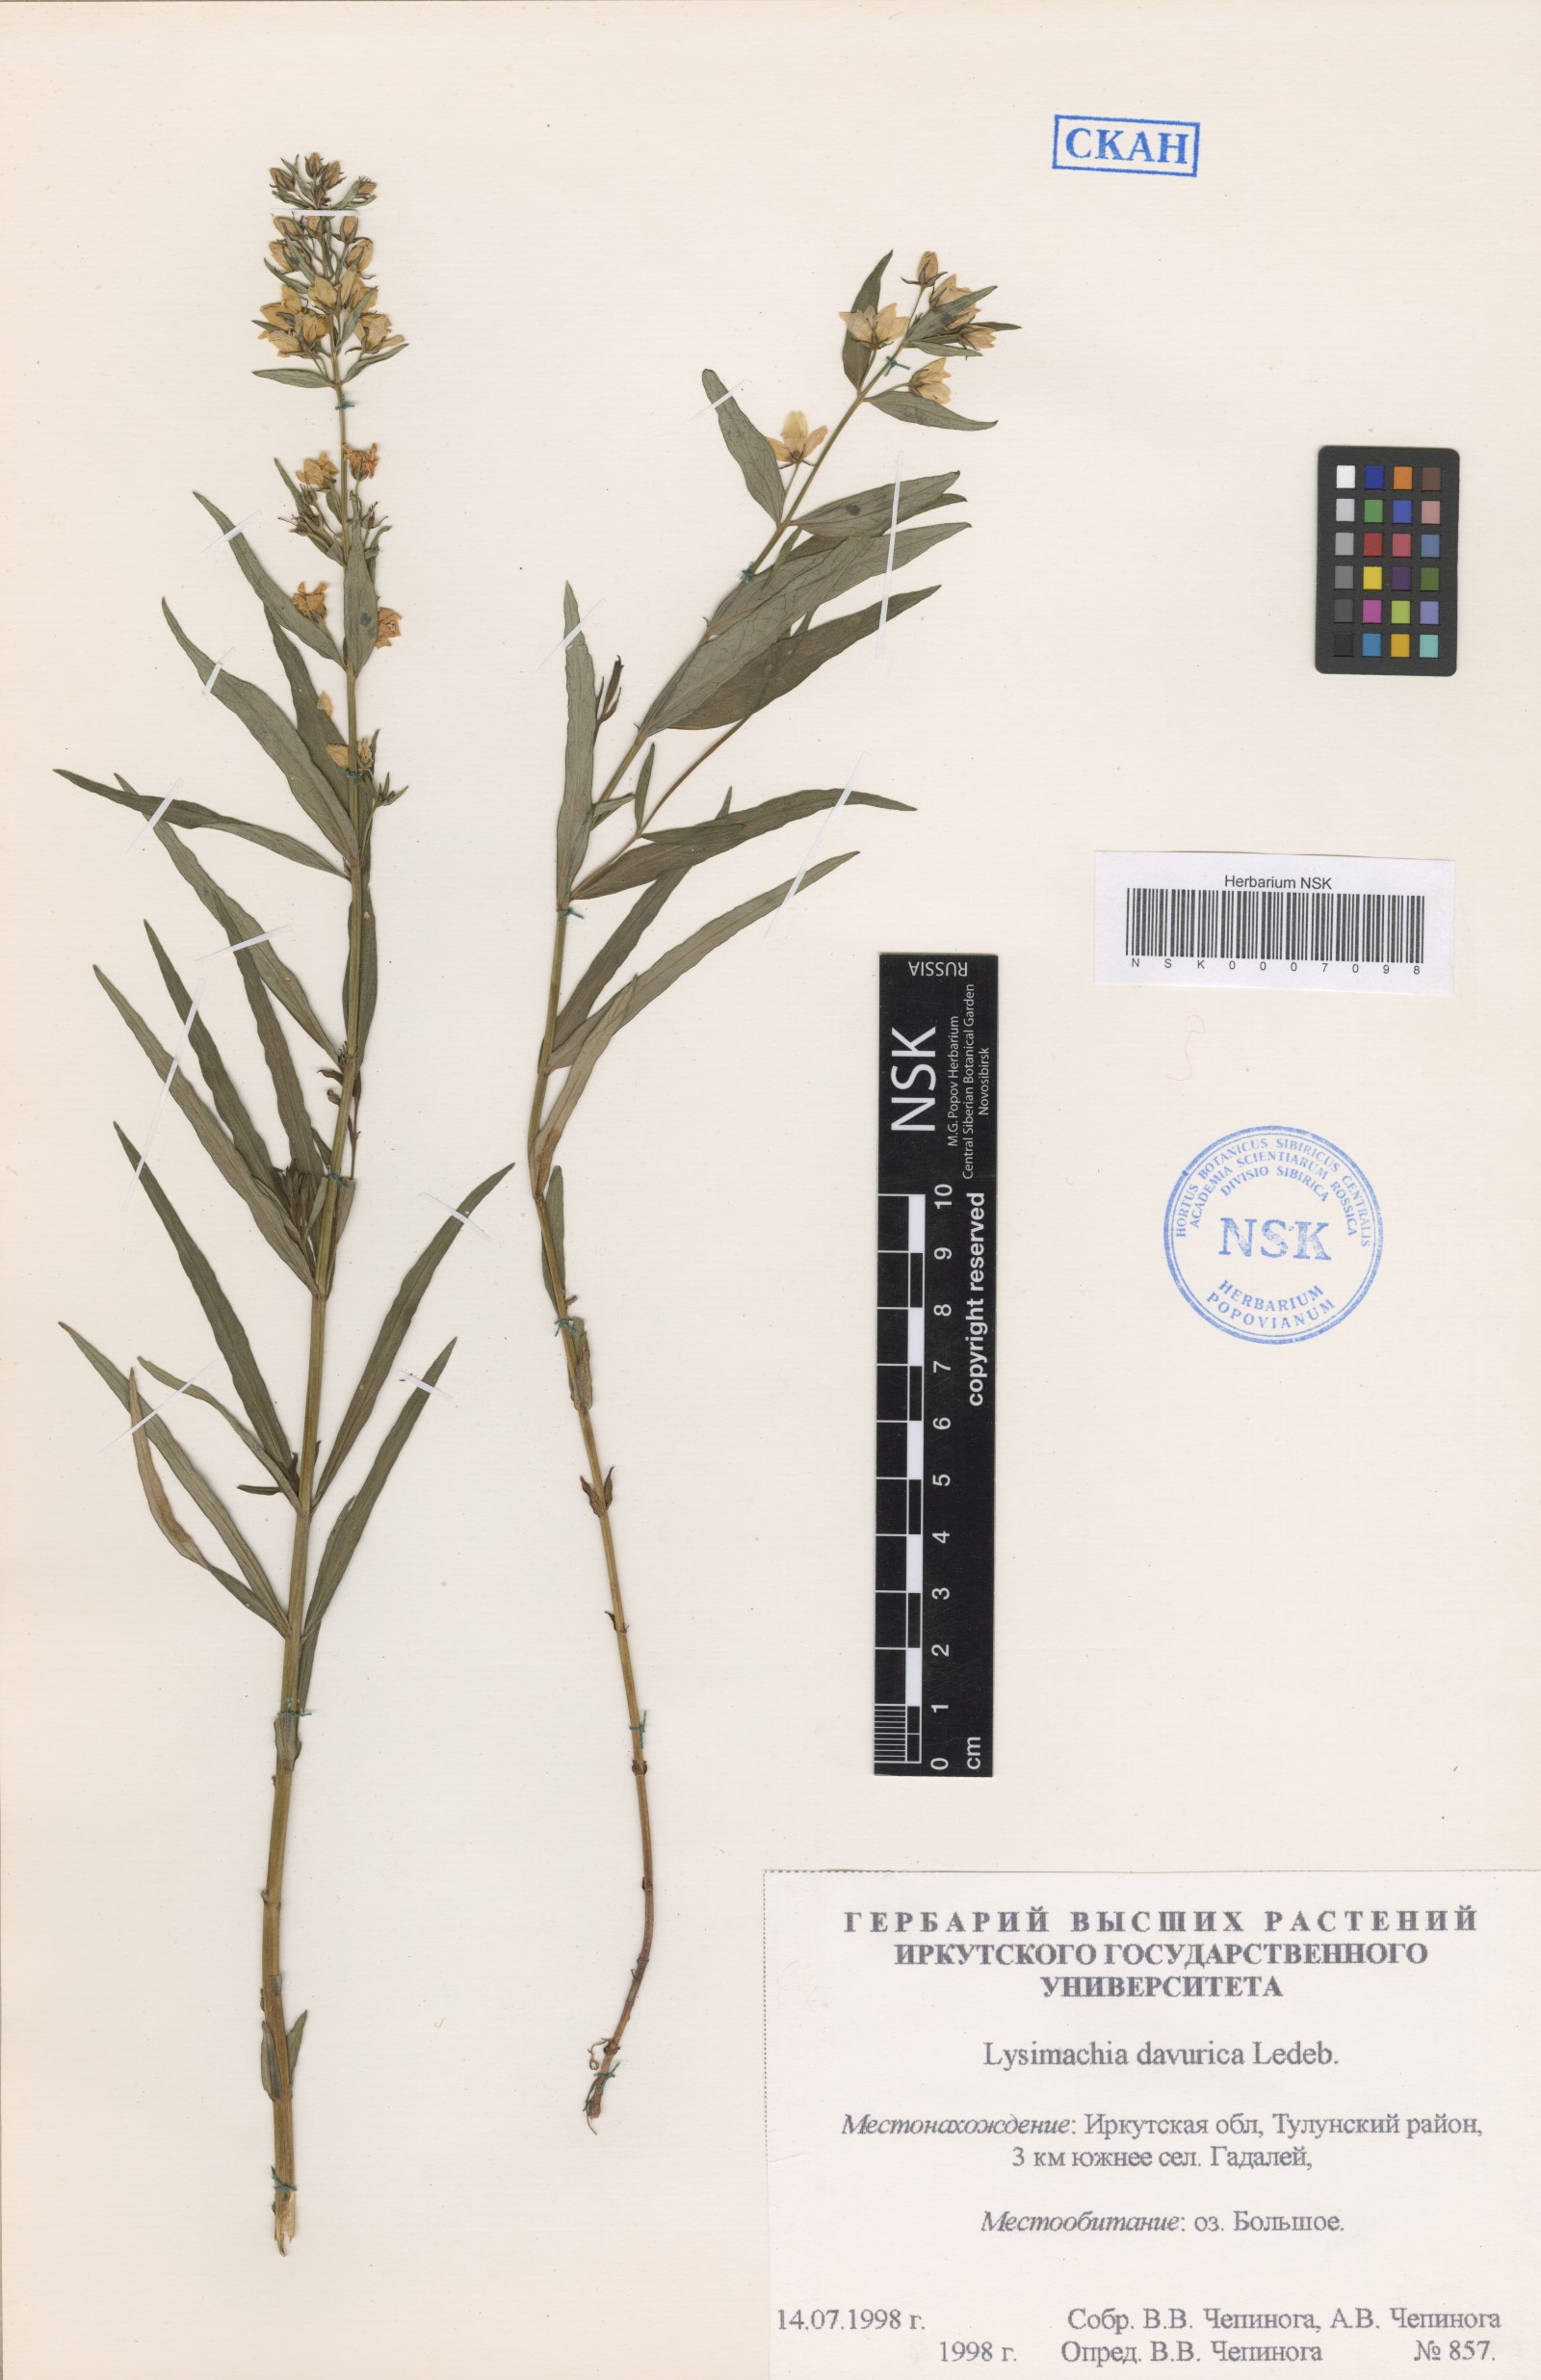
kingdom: Plantae
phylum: Tracheophyta
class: Magnoliopsida
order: Ericales
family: Primulaceae
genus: Lysimachia
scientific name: Lysimachia davurica
